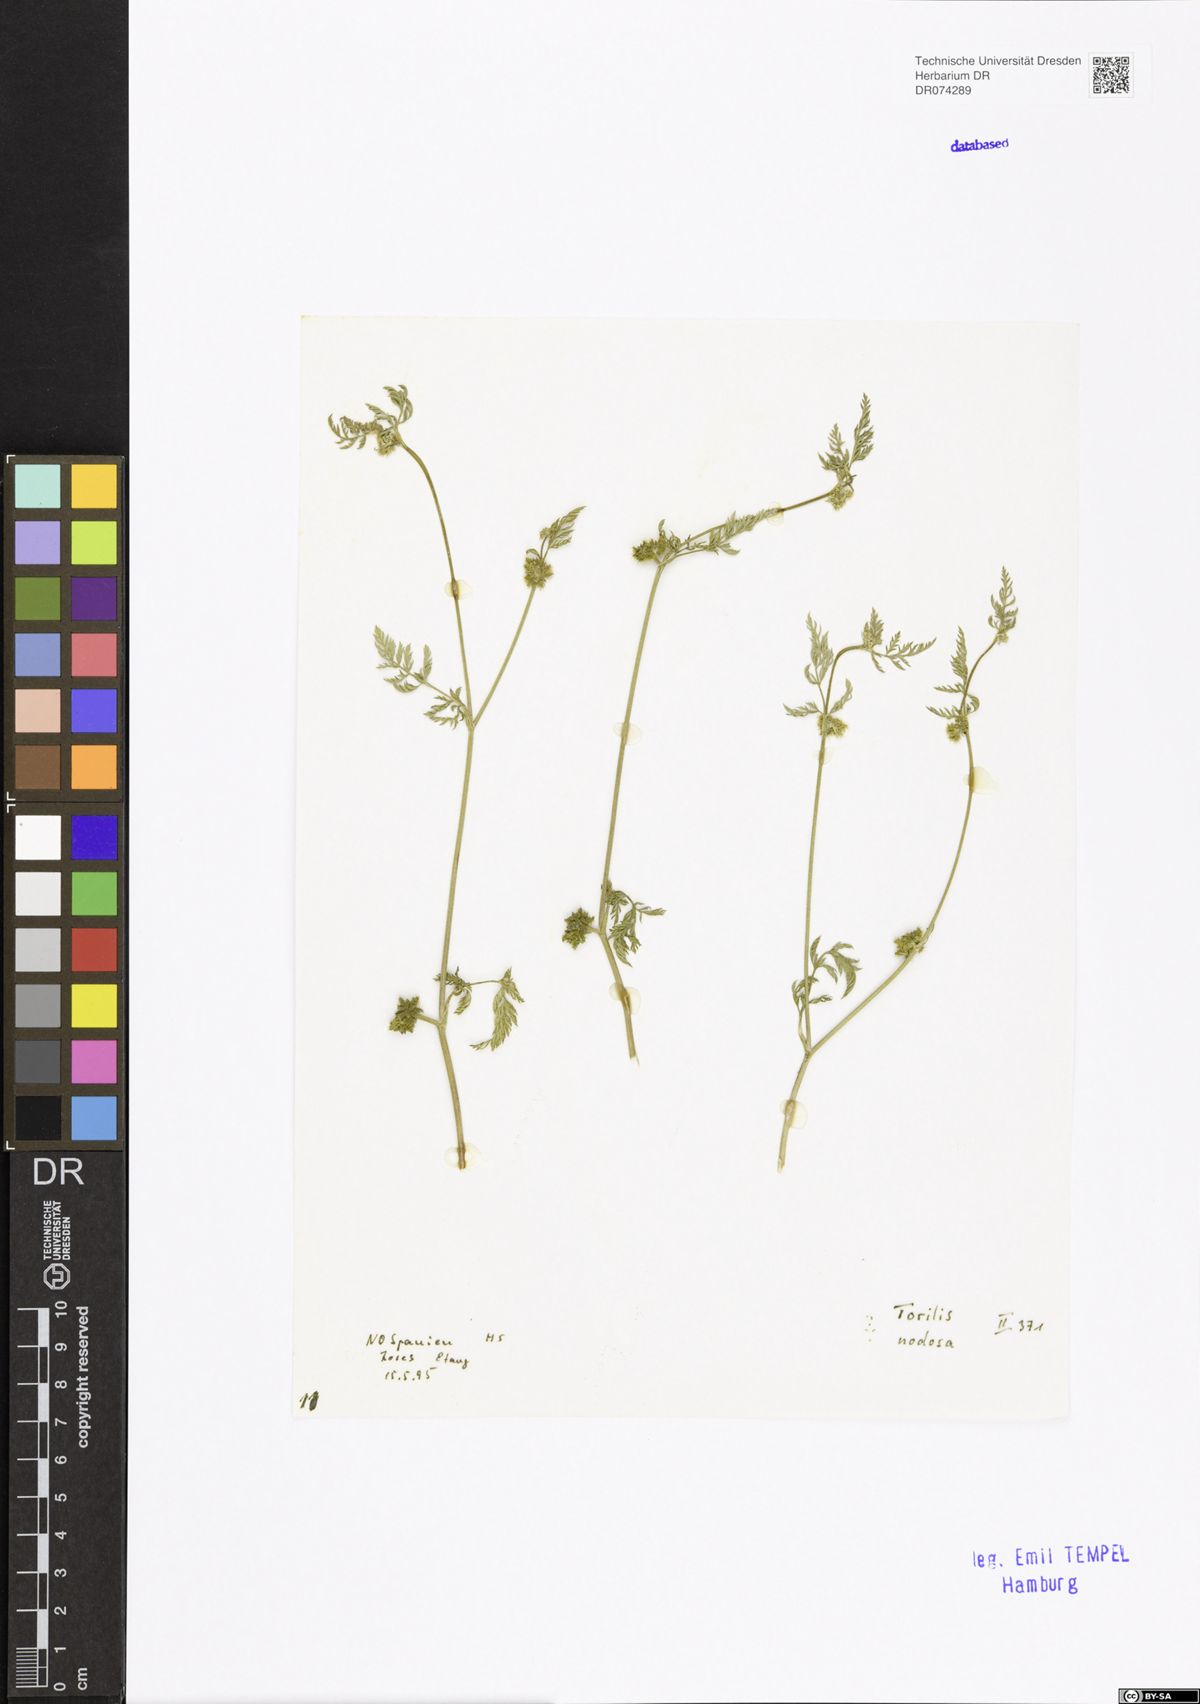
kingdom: Plantae
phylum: Tracheophyta
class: Magnoliopsida
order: Apiales
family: Apiaceae
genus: Torilis
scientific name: Torilis nodosa
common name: Knotted hedge-parsley
